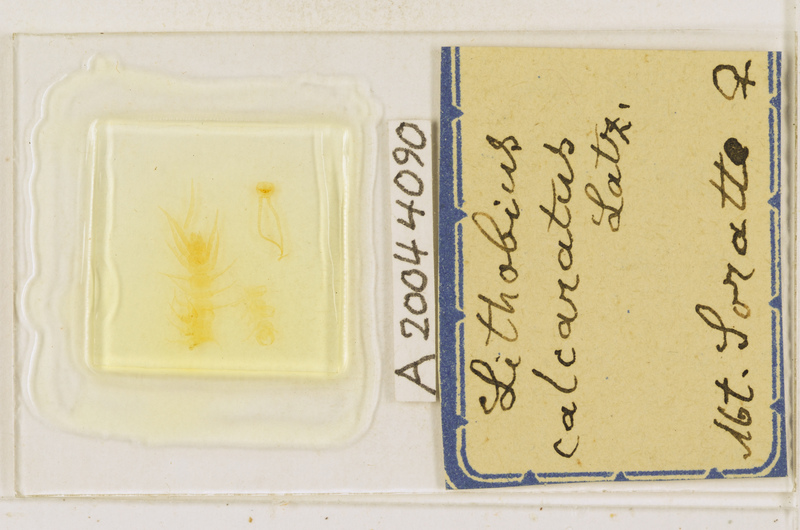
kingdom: Animalia
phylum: Arthropoda
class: Chilopoda
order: Lithobiomorpha
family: Lithobiidae
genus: Lithobius
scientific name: Lithobius calcaratus
